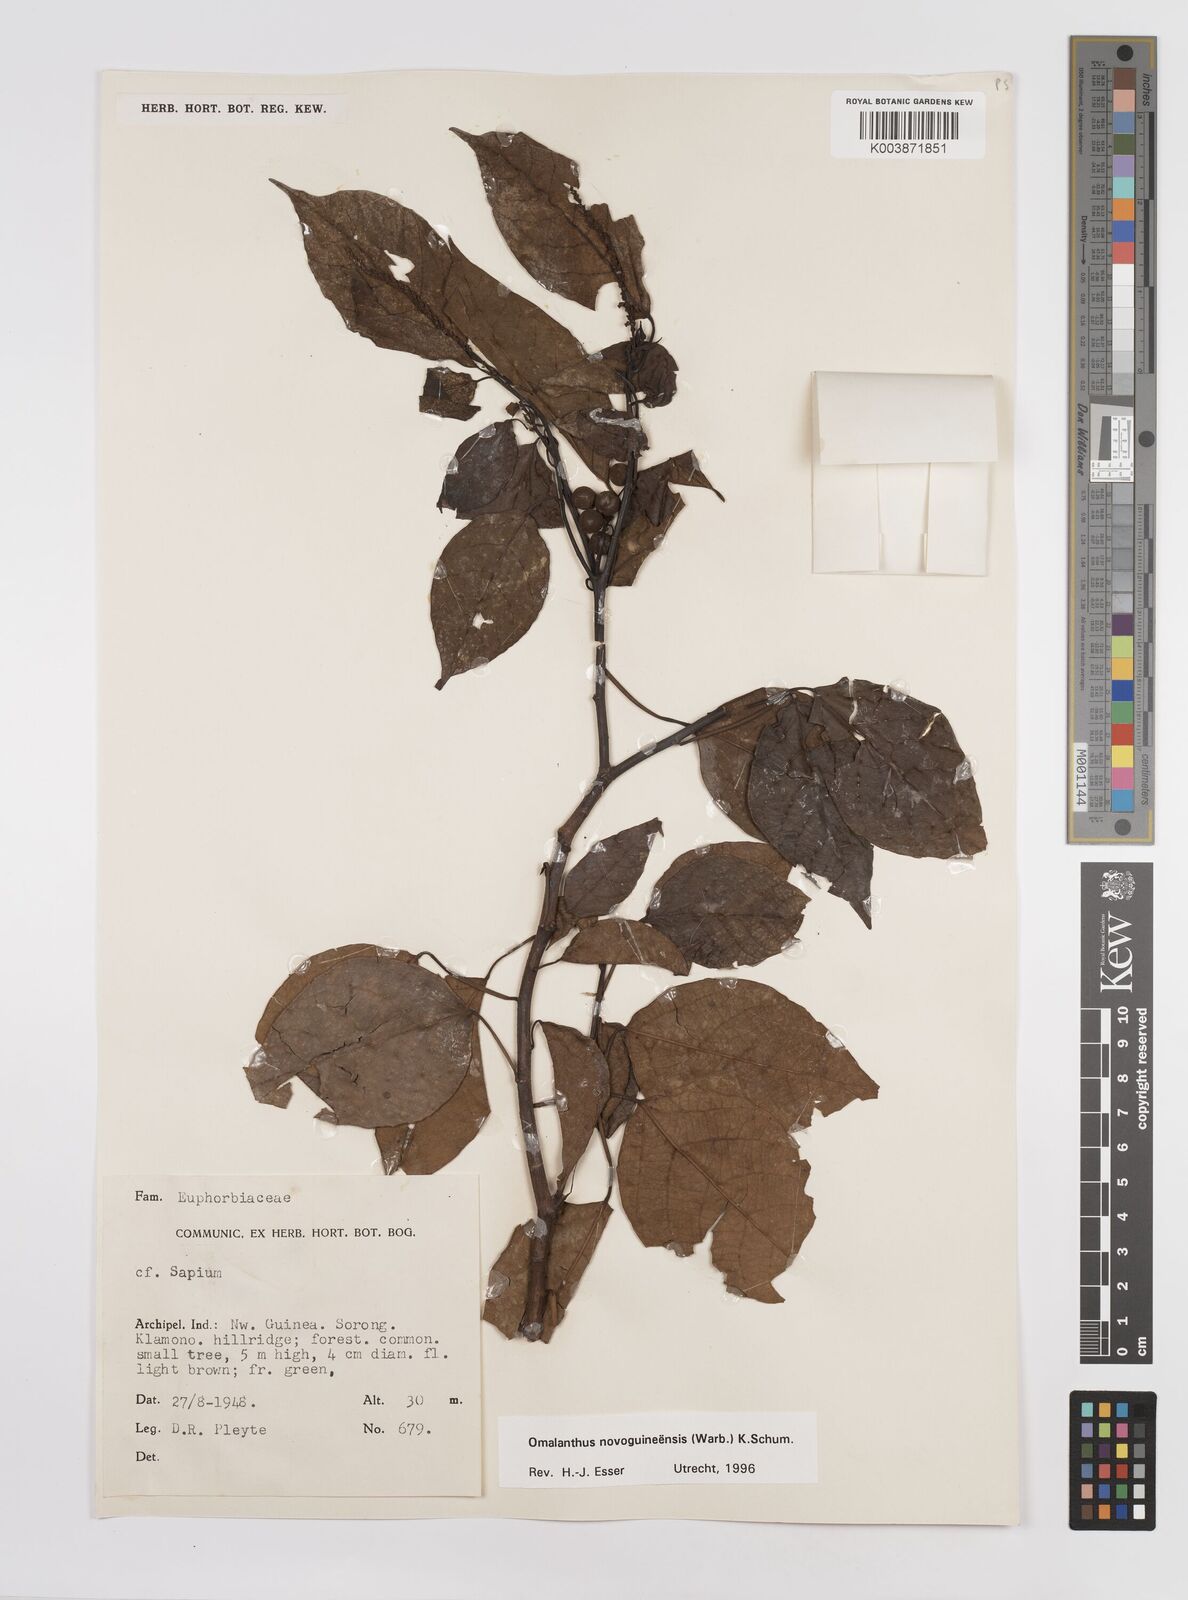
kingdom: Plantae
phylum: Tracheophyta
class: Magnoliopsida
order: Malpighiales
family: Euphorbiaceae
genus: Homalanthus
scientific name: Homalanthus novoguineensis
